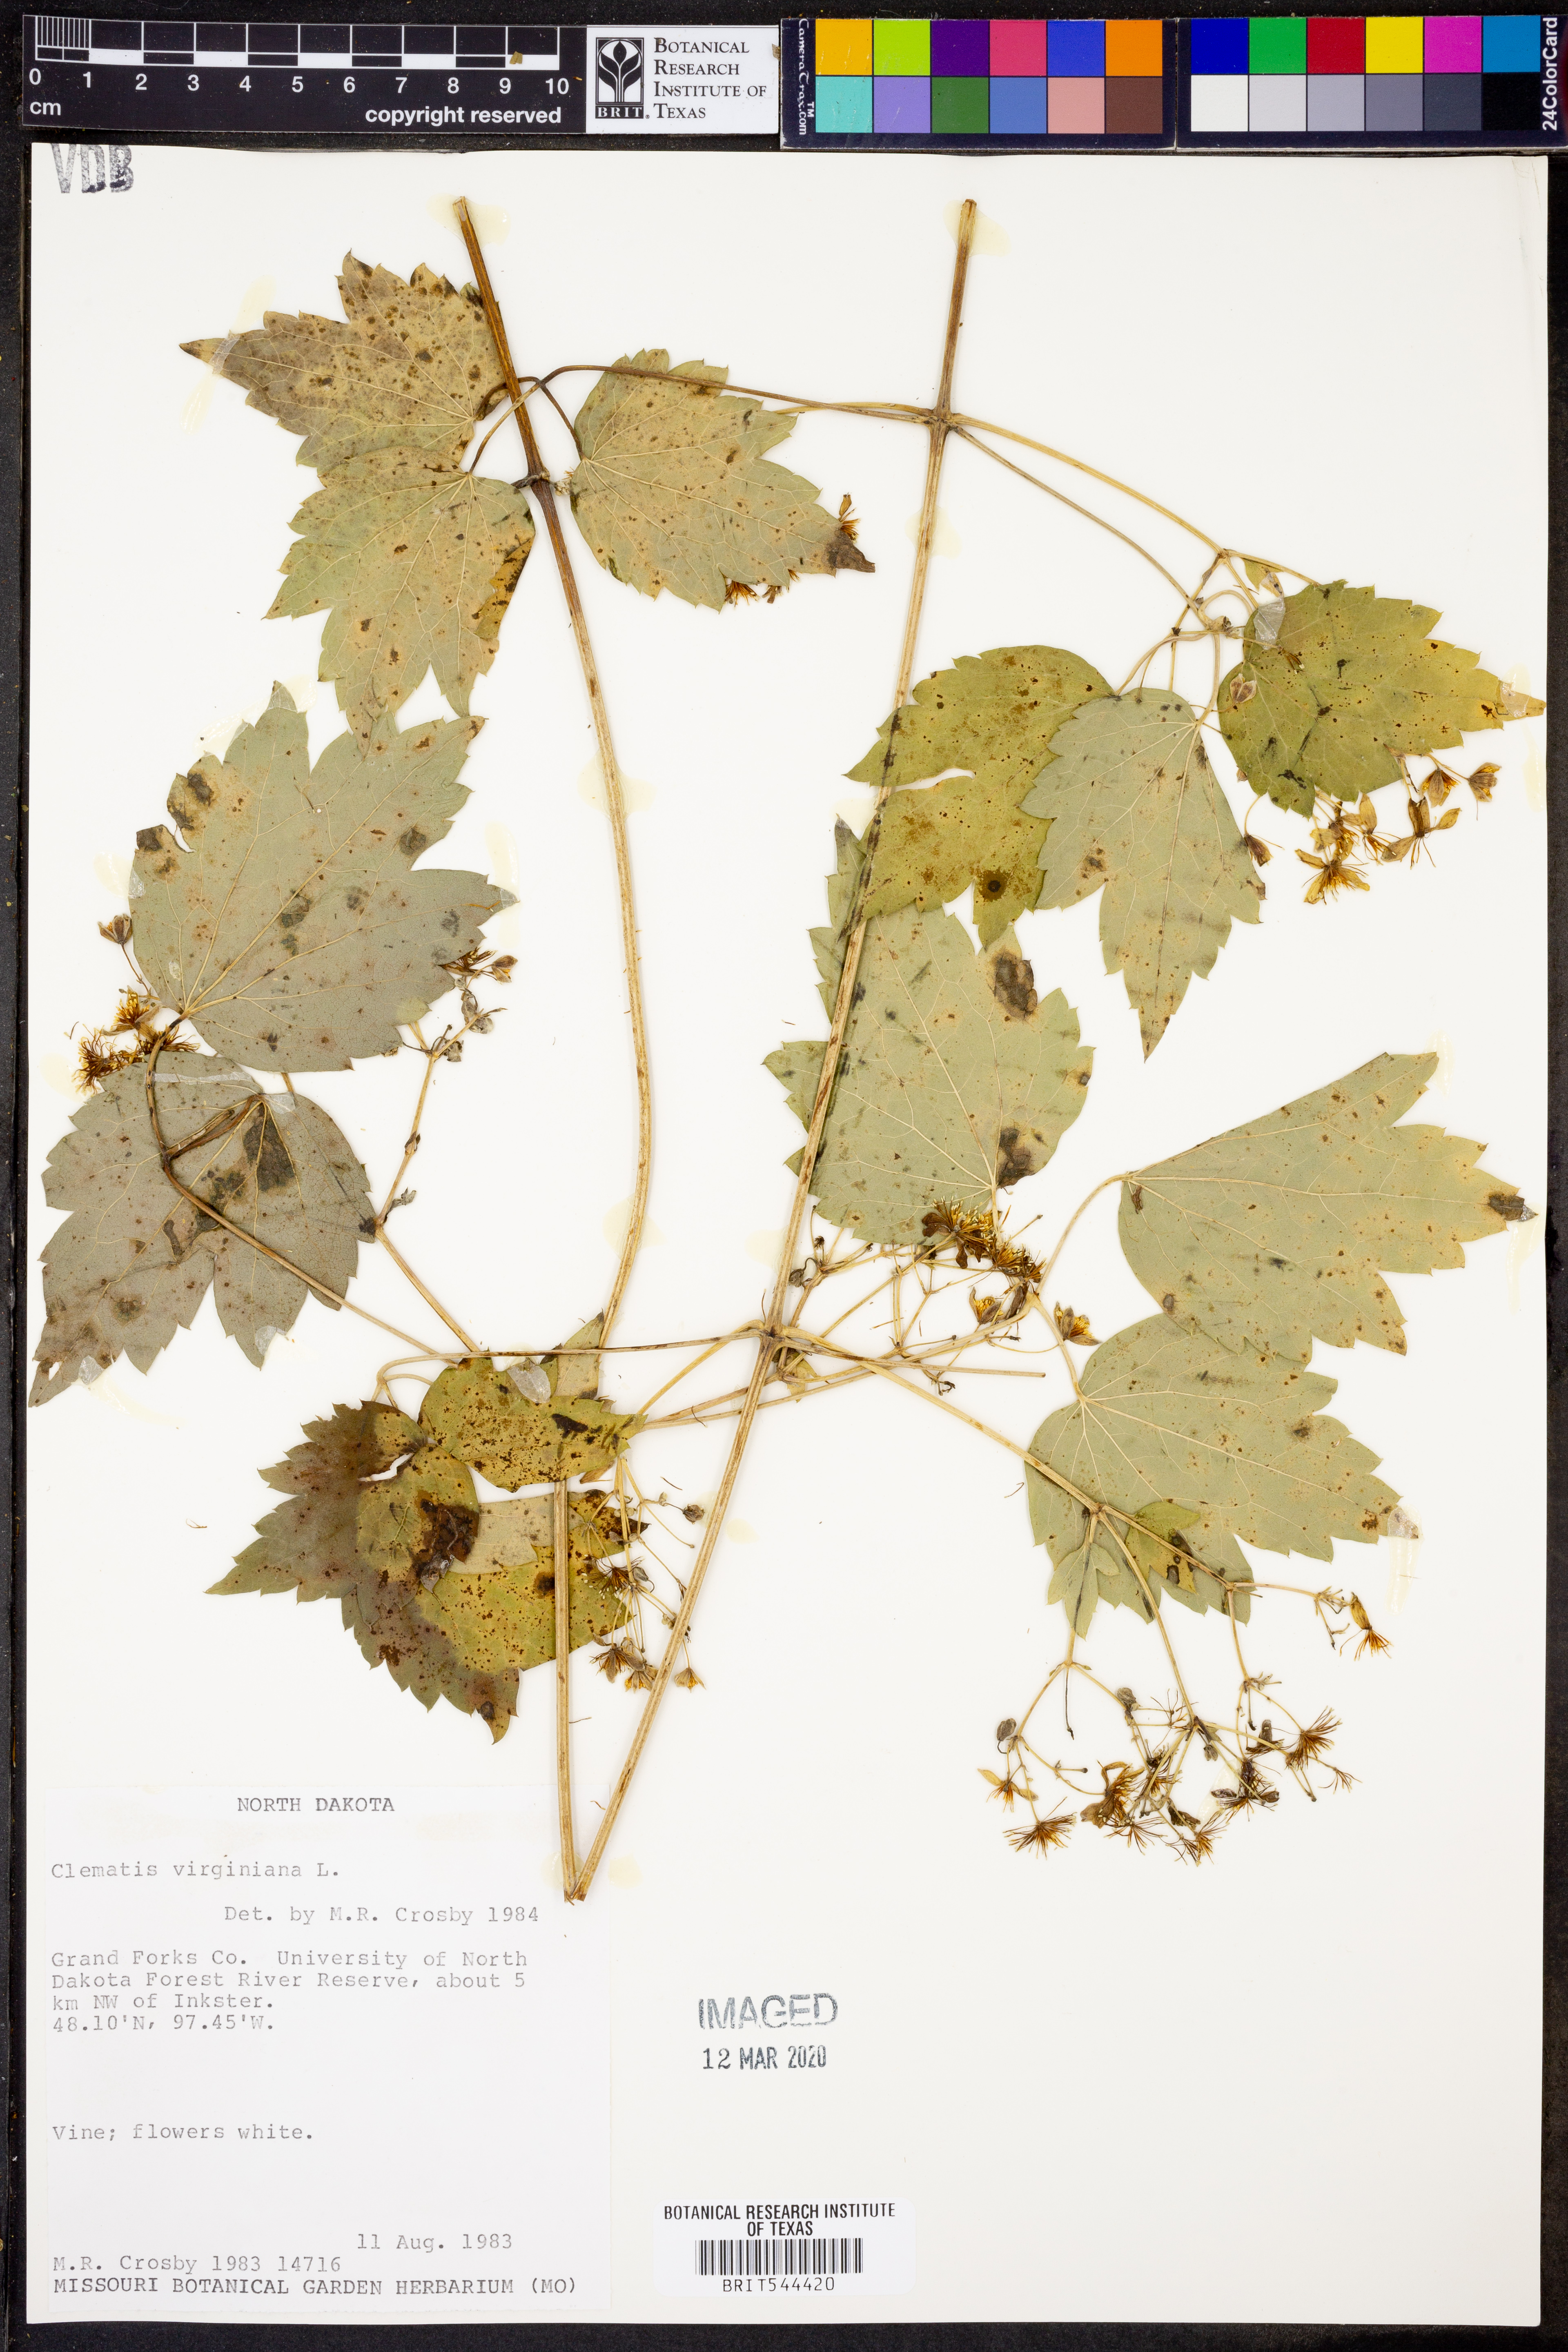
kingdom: Plantae
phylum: Tracheophyta
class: Magnoliopsida
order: Ranunculales
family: Ranunculaceae
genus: Clematis
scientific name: Clematis virginiana
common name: Virgin's-bower
